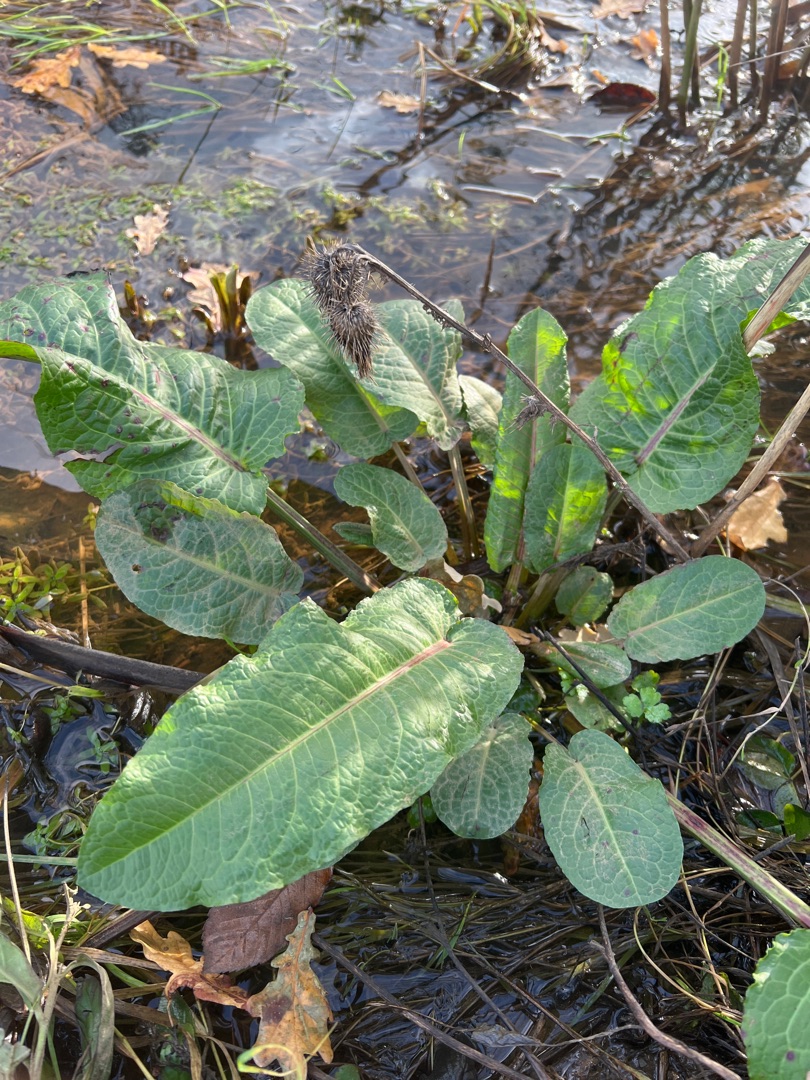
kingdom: Plantae
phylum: Tracheophyta
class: Magnoliopsida
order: Caryophyllales
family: Polygonaceae
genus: Rumex
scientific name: Rumex obtusifolius
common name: Butbladet skræppe
